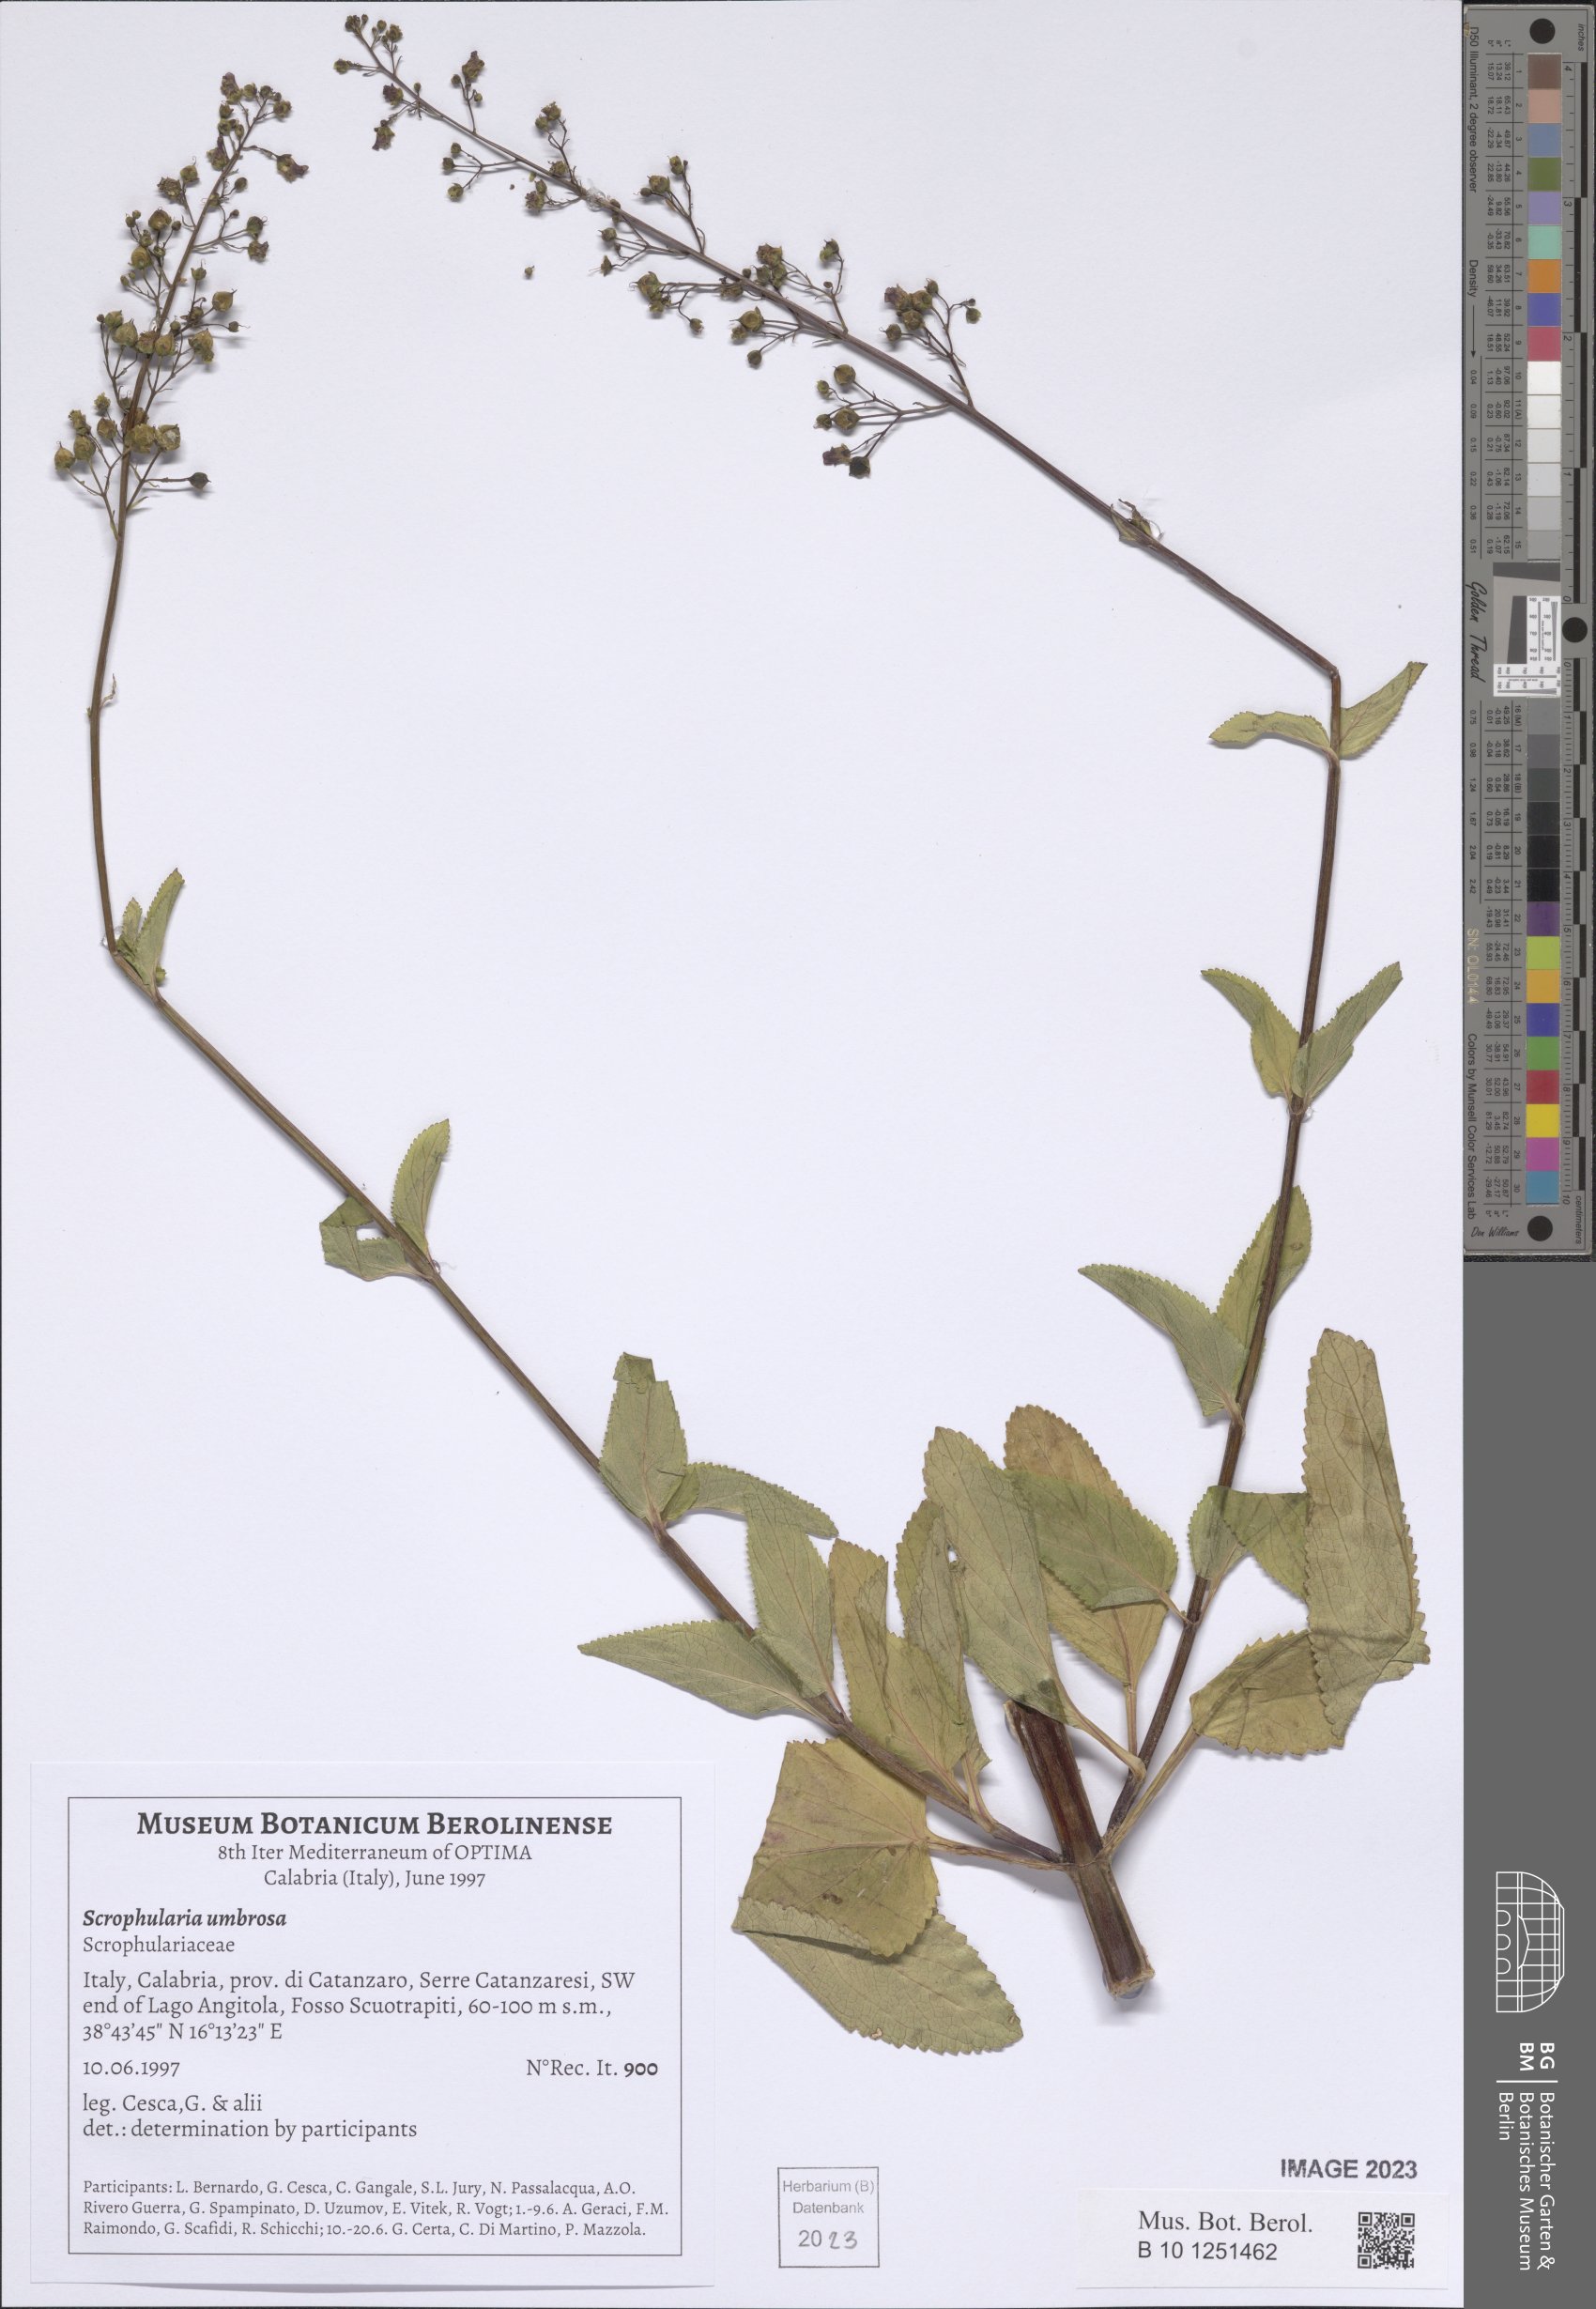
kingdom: Plantae
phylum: Tracheophyta
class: Magnoliopsida
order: Lamiales
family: Scrophulariaceae
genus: Scrophularia
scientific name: Scrophularia umbrosa
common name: Green figwort
